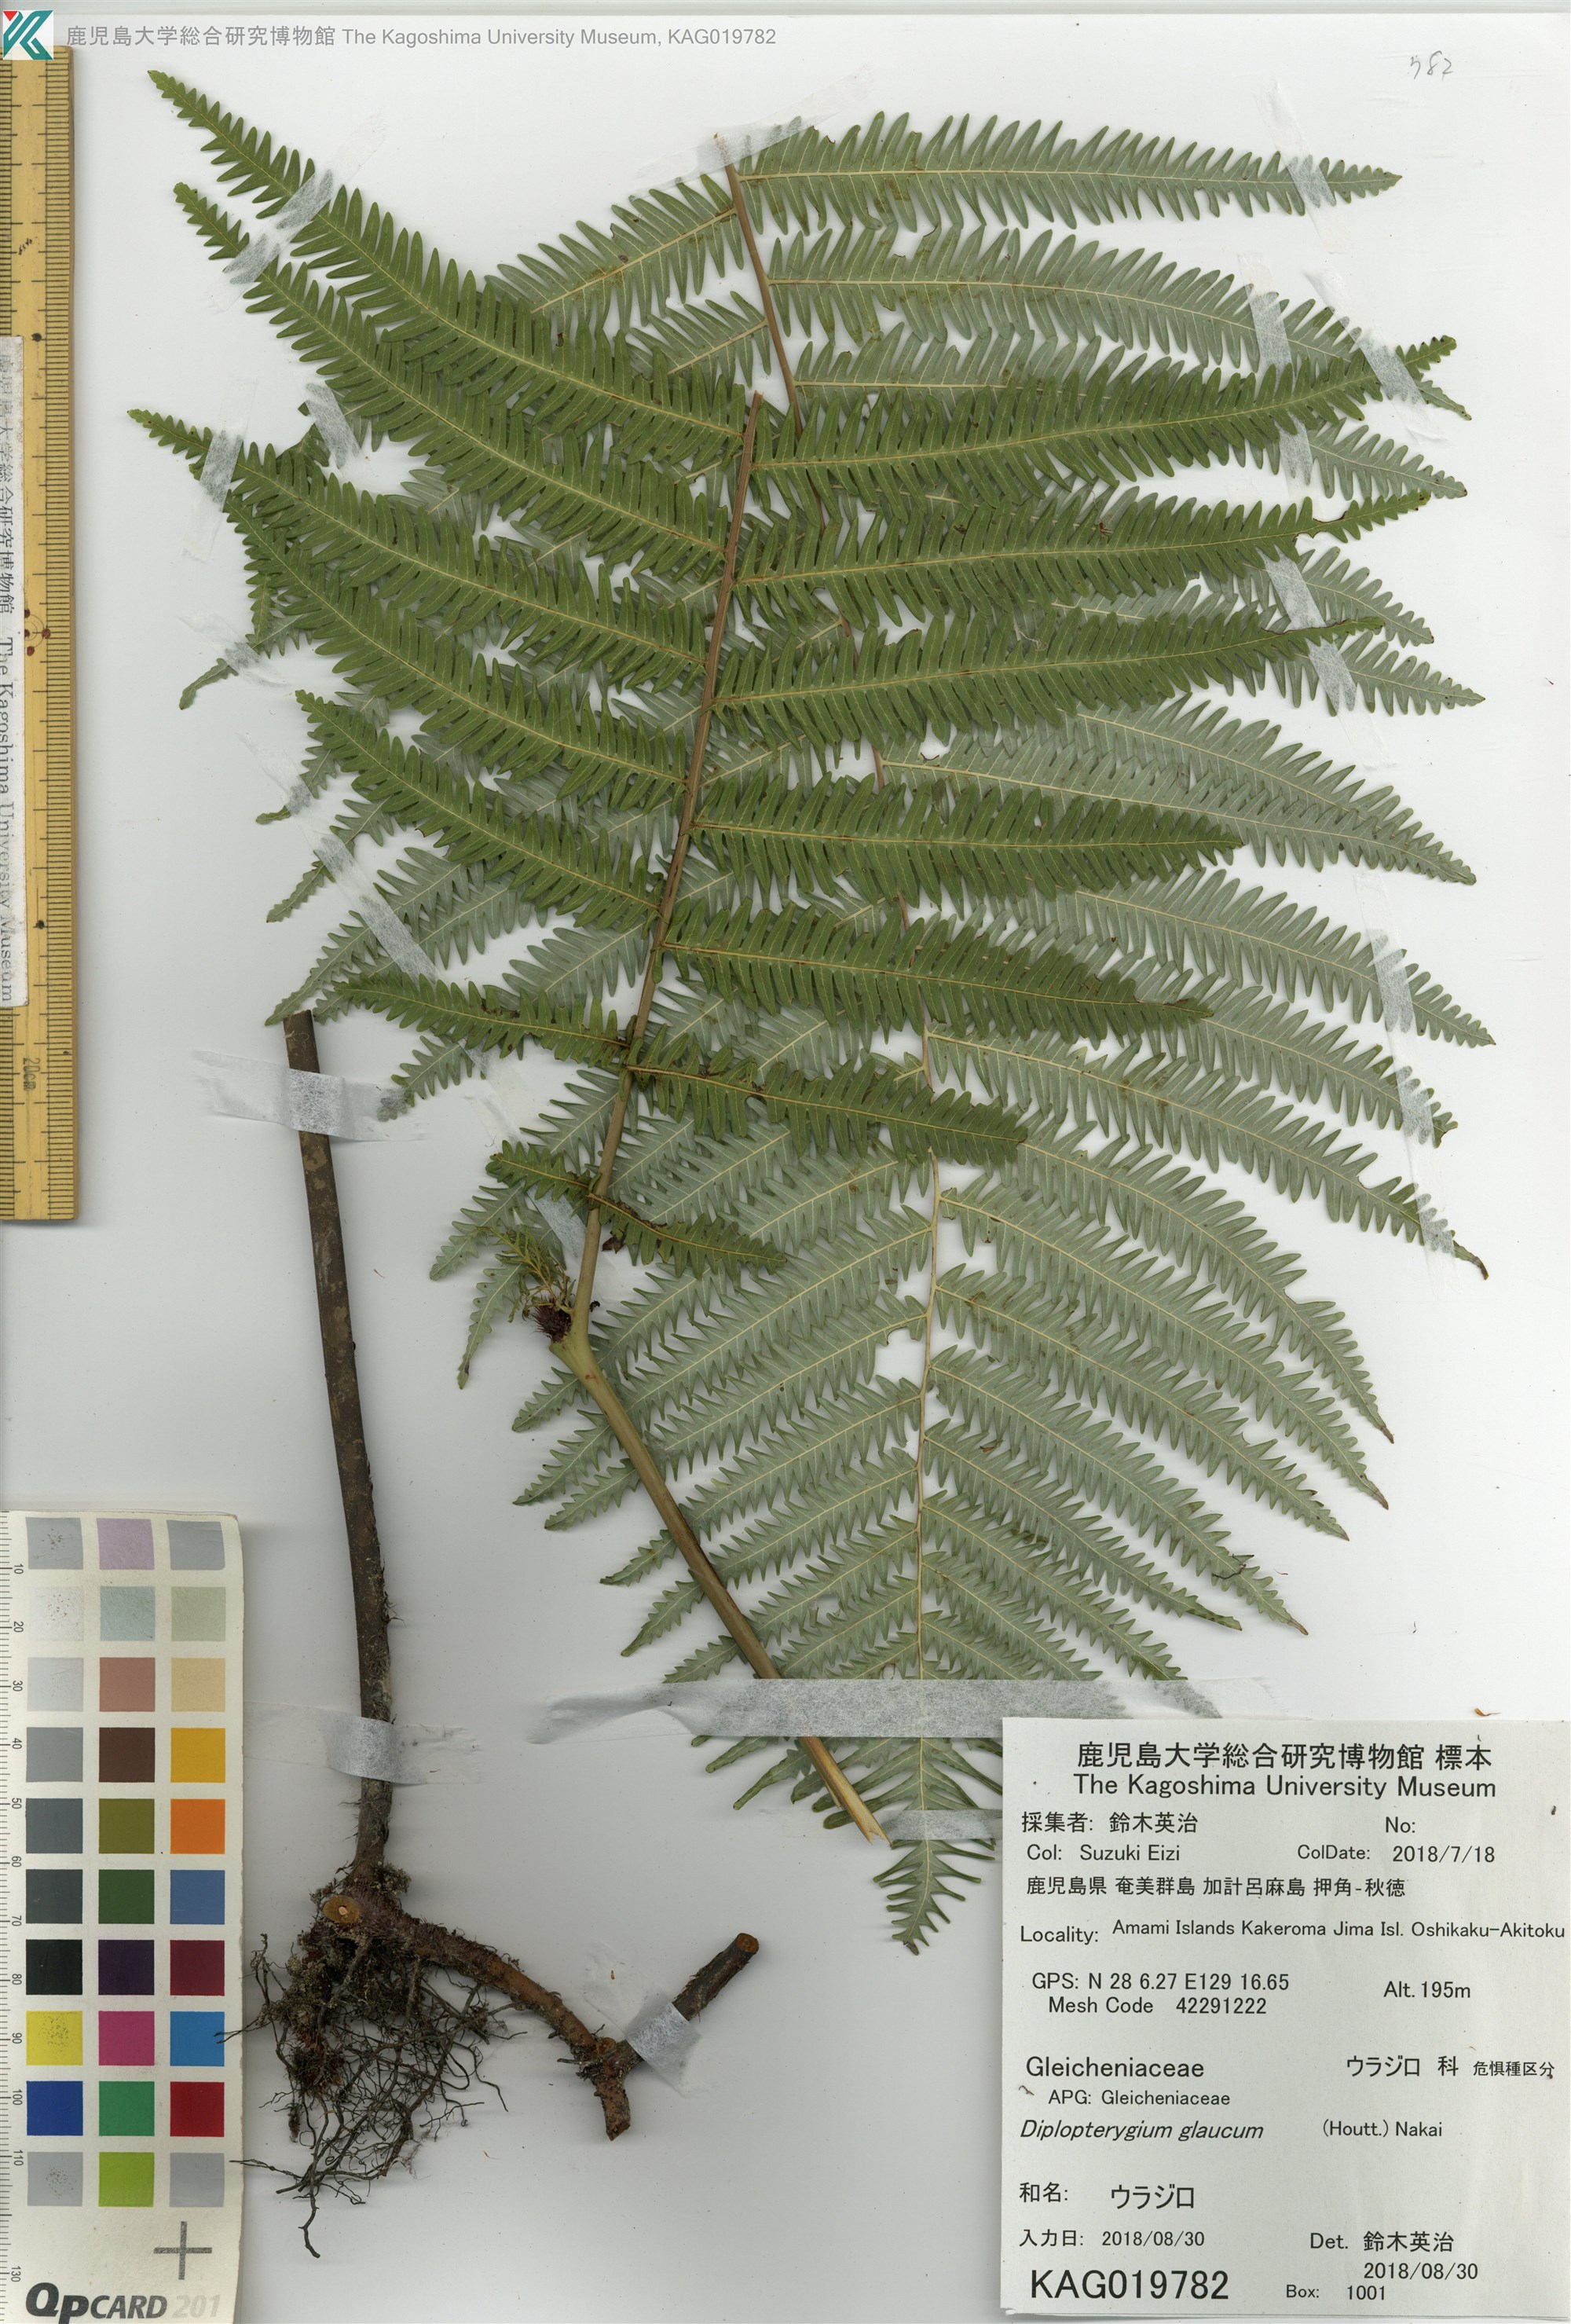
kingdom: Plantae
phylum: Tracheophyta
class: Polypodiopsida
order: Gleicheniales
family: Gleicheniaceae
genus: Diplopterygium
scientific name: Diplopterygium glaucum
